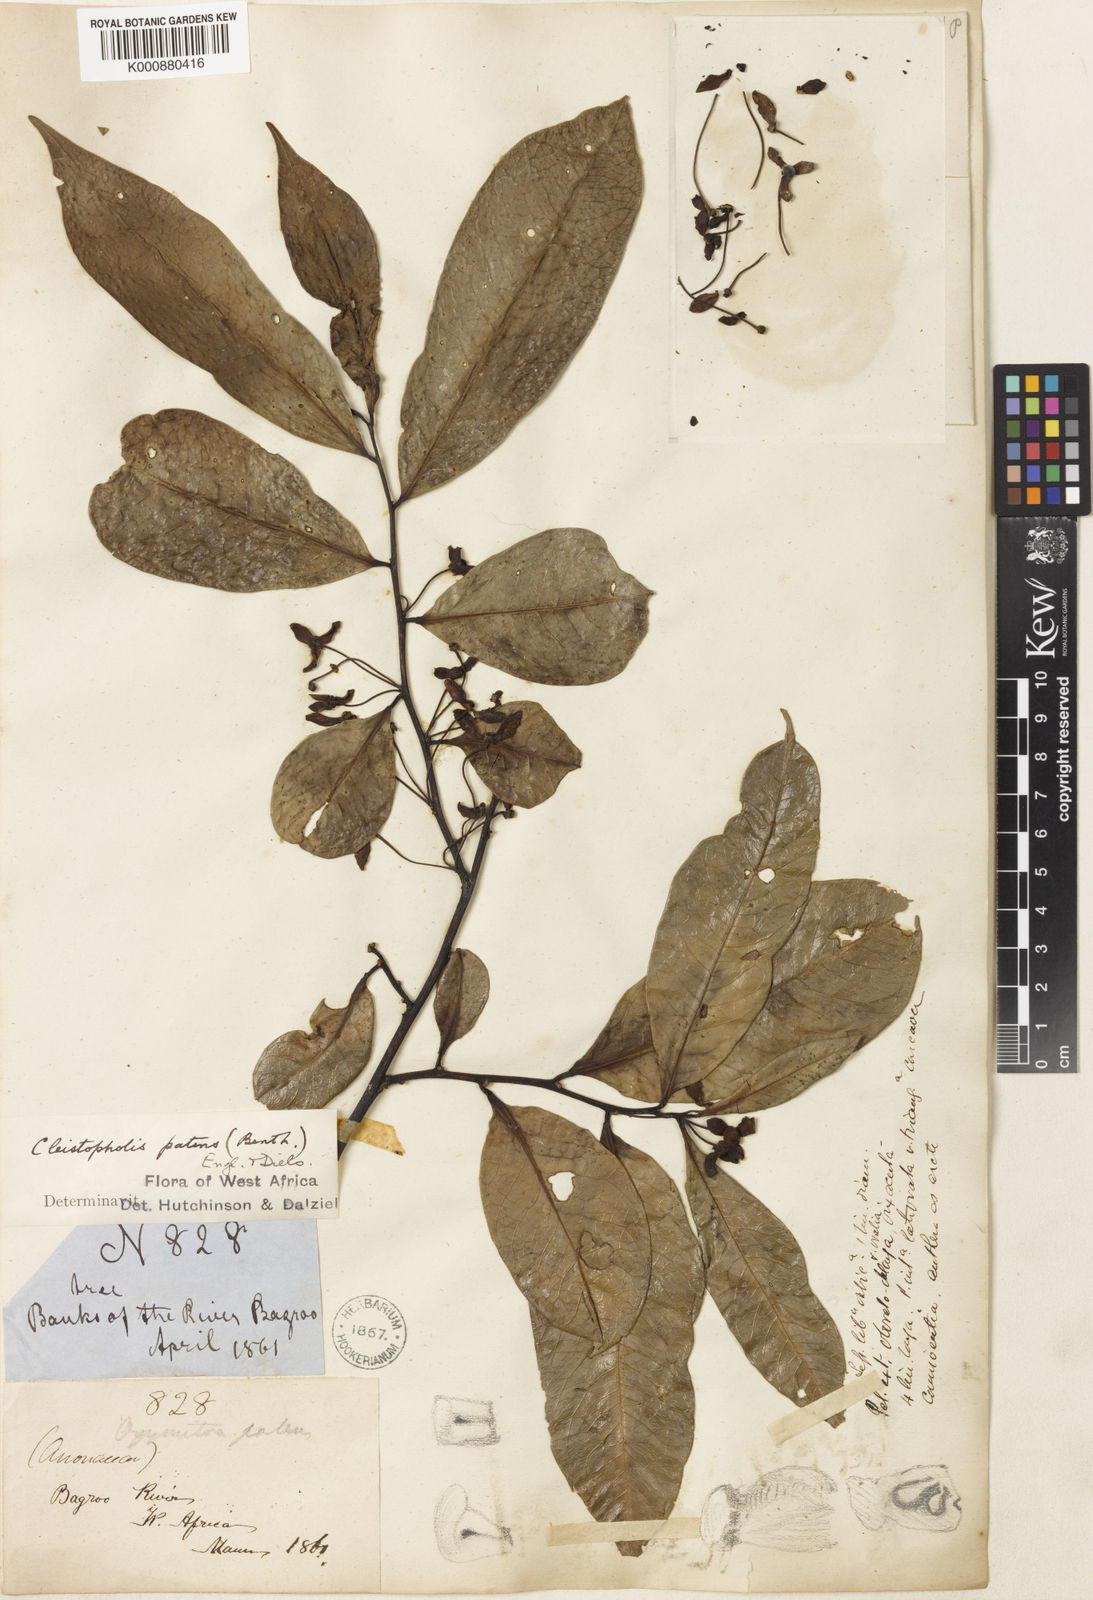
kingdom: Plantae
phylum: Tracheophyta
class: Magnoliopsida
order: Magnoliales
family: Annonaceae
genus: Cleistopholis
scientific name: Cleistopholis patens
